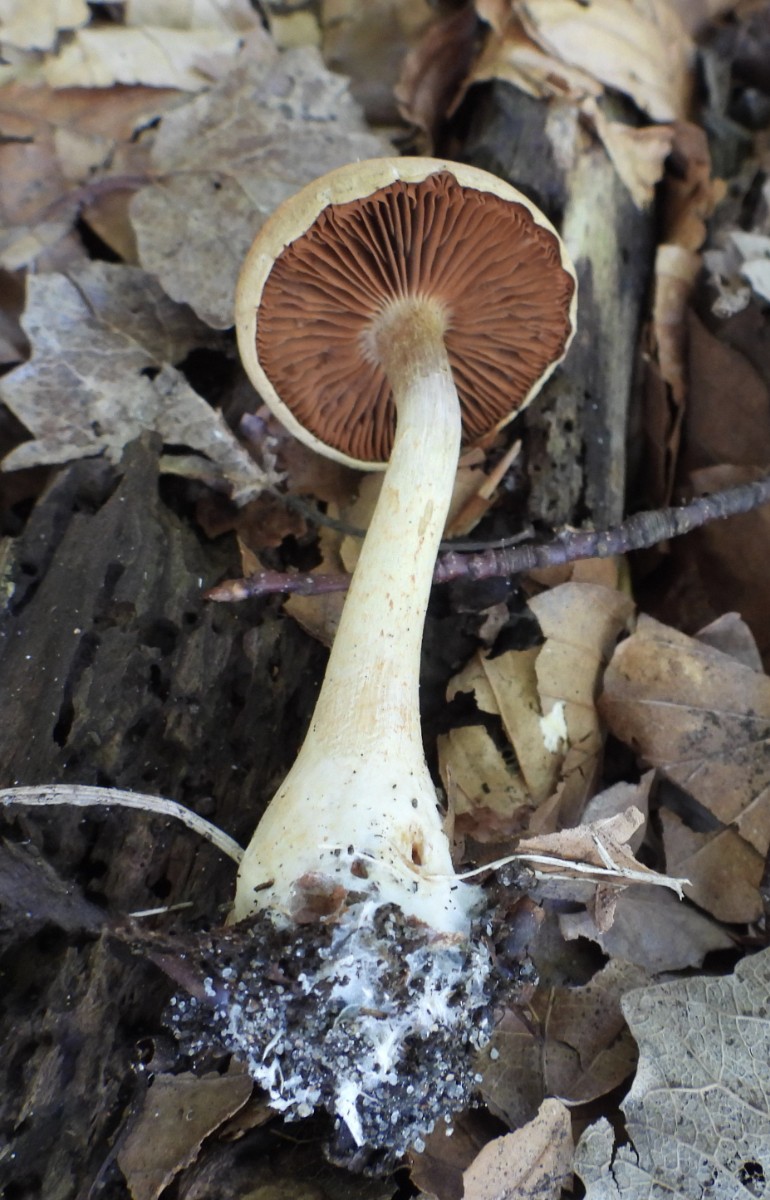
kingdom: Fungi
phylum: Basidiomycota
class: Agaricomycetes
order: Agaricales
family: Cortinariaceae
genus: Cortinarius
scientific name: Cortinarius
